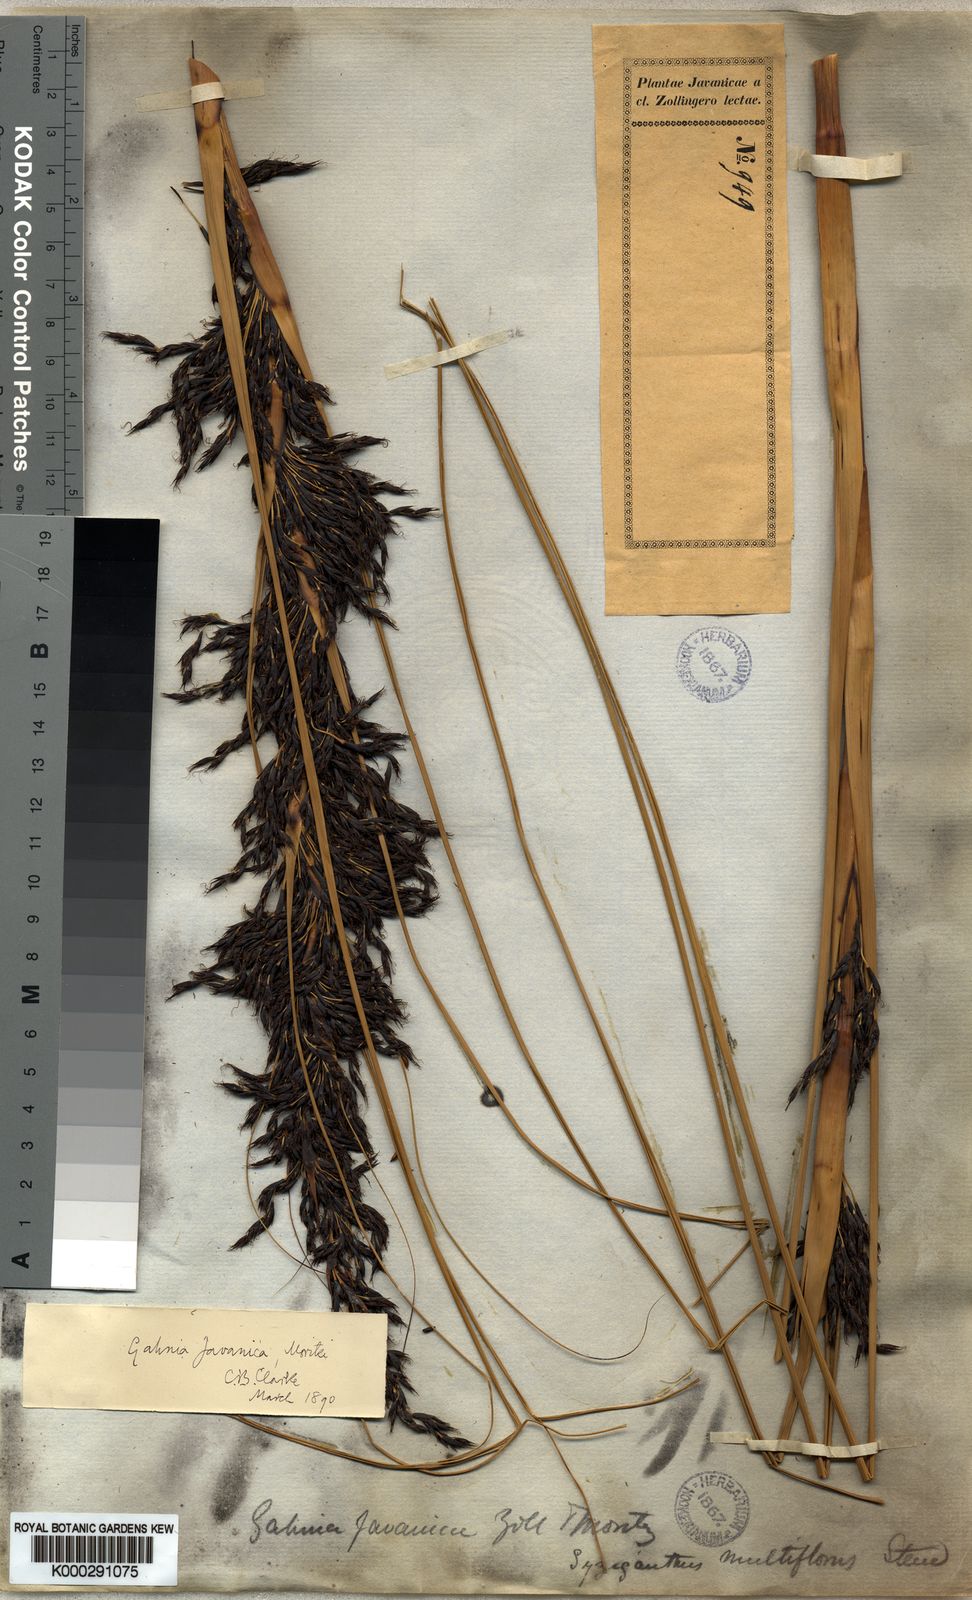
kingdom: Plantae
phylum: Tracheophyta
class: Liliopsida
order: Poales
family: Cyperaceae
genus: Gahnia
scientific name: Gahnia javanica
